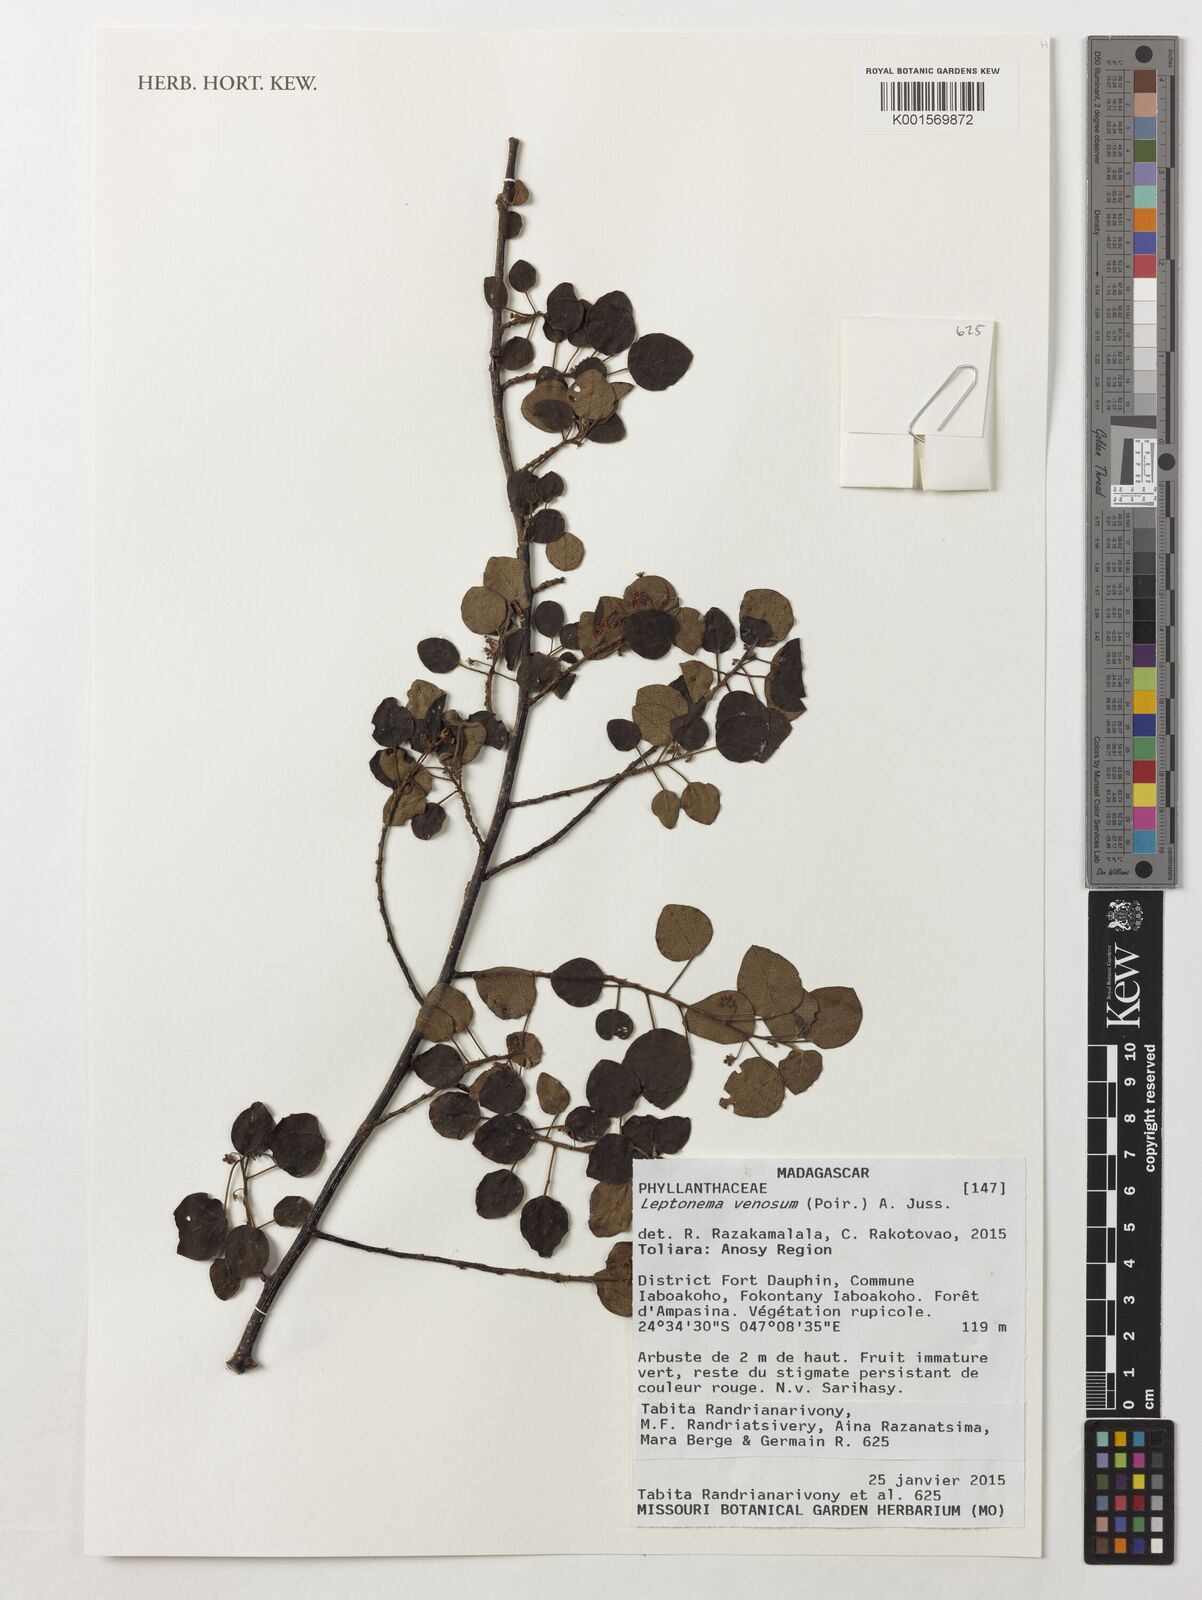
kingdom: Plantae
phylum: Tracheophyta
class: Magnoliopsida
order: Malpighiales
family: Phyllanthaceae
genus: Leptonema
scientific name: Leptonema venosum
